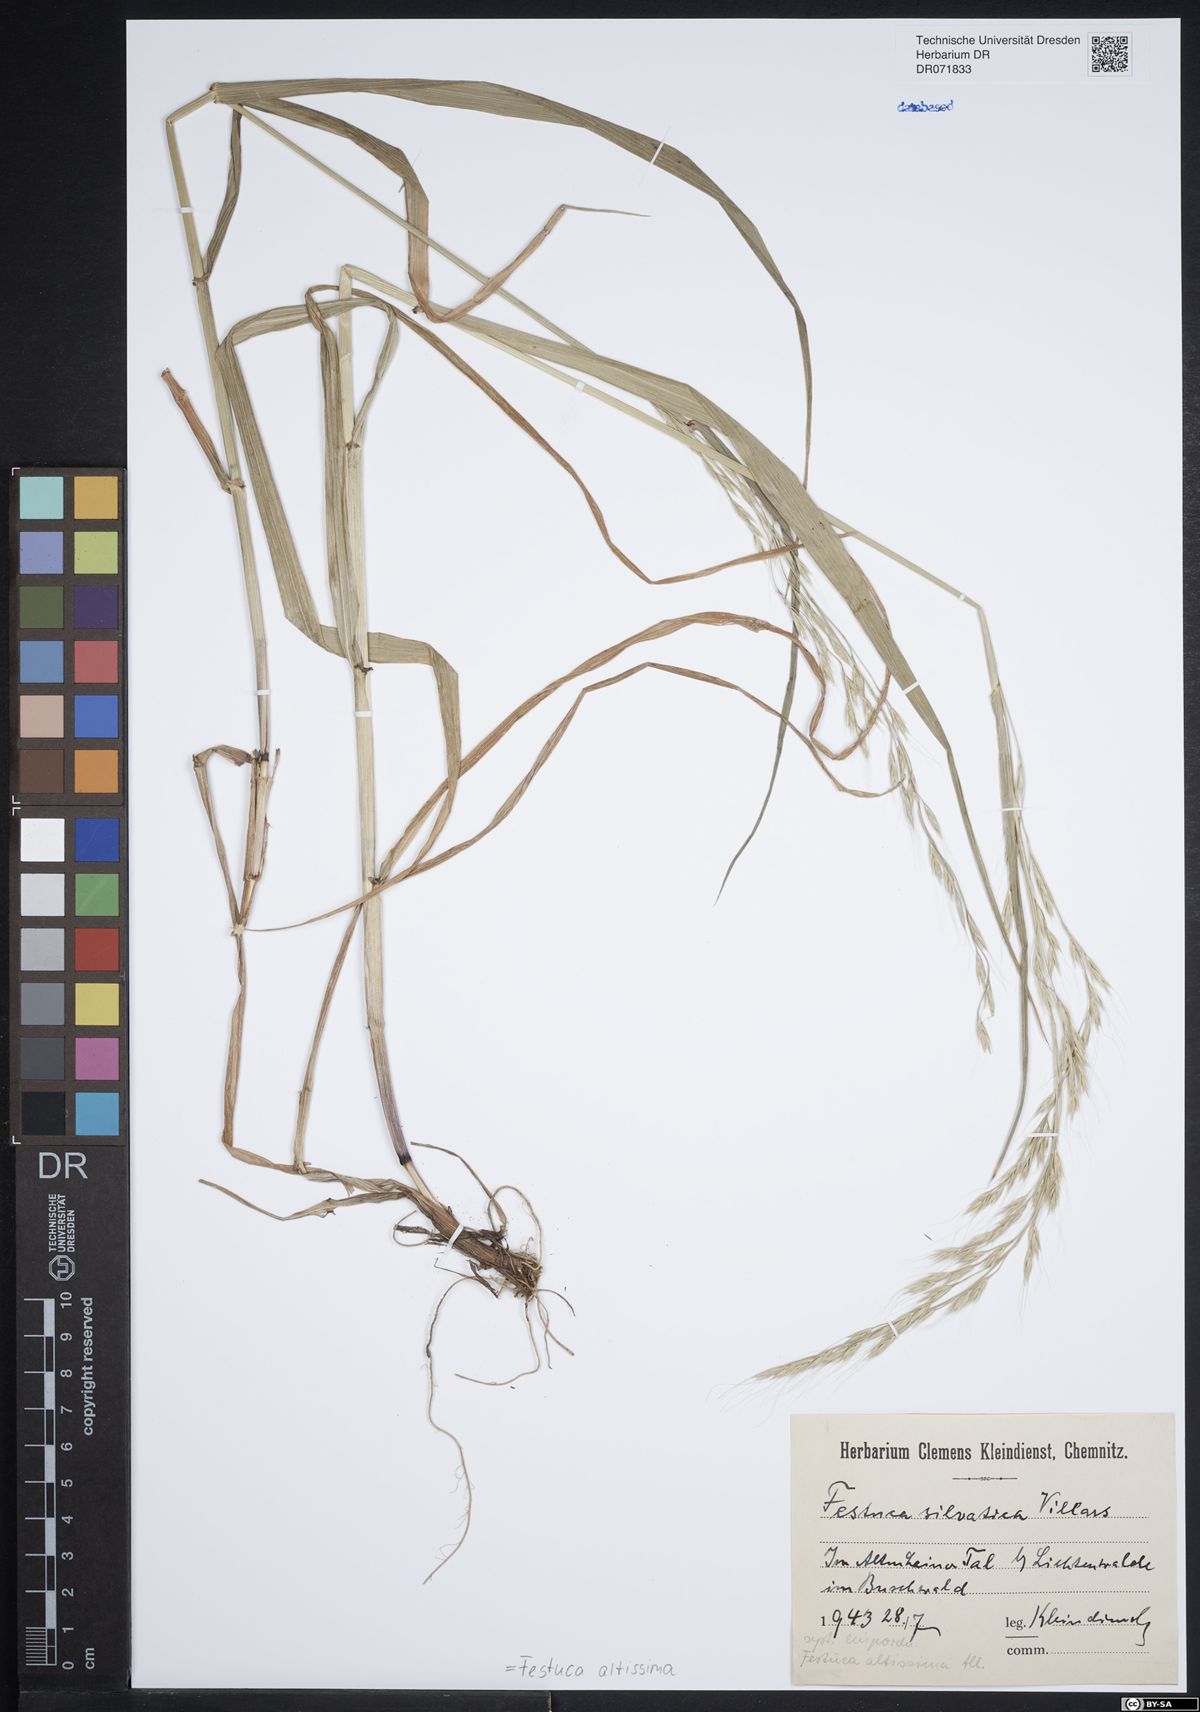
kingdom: Plantae
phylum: Tracheophyta
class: Liliopsida
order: Poales
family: Poaceae
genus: Festuca
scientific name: Festuca altissima
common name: Wood fescue
